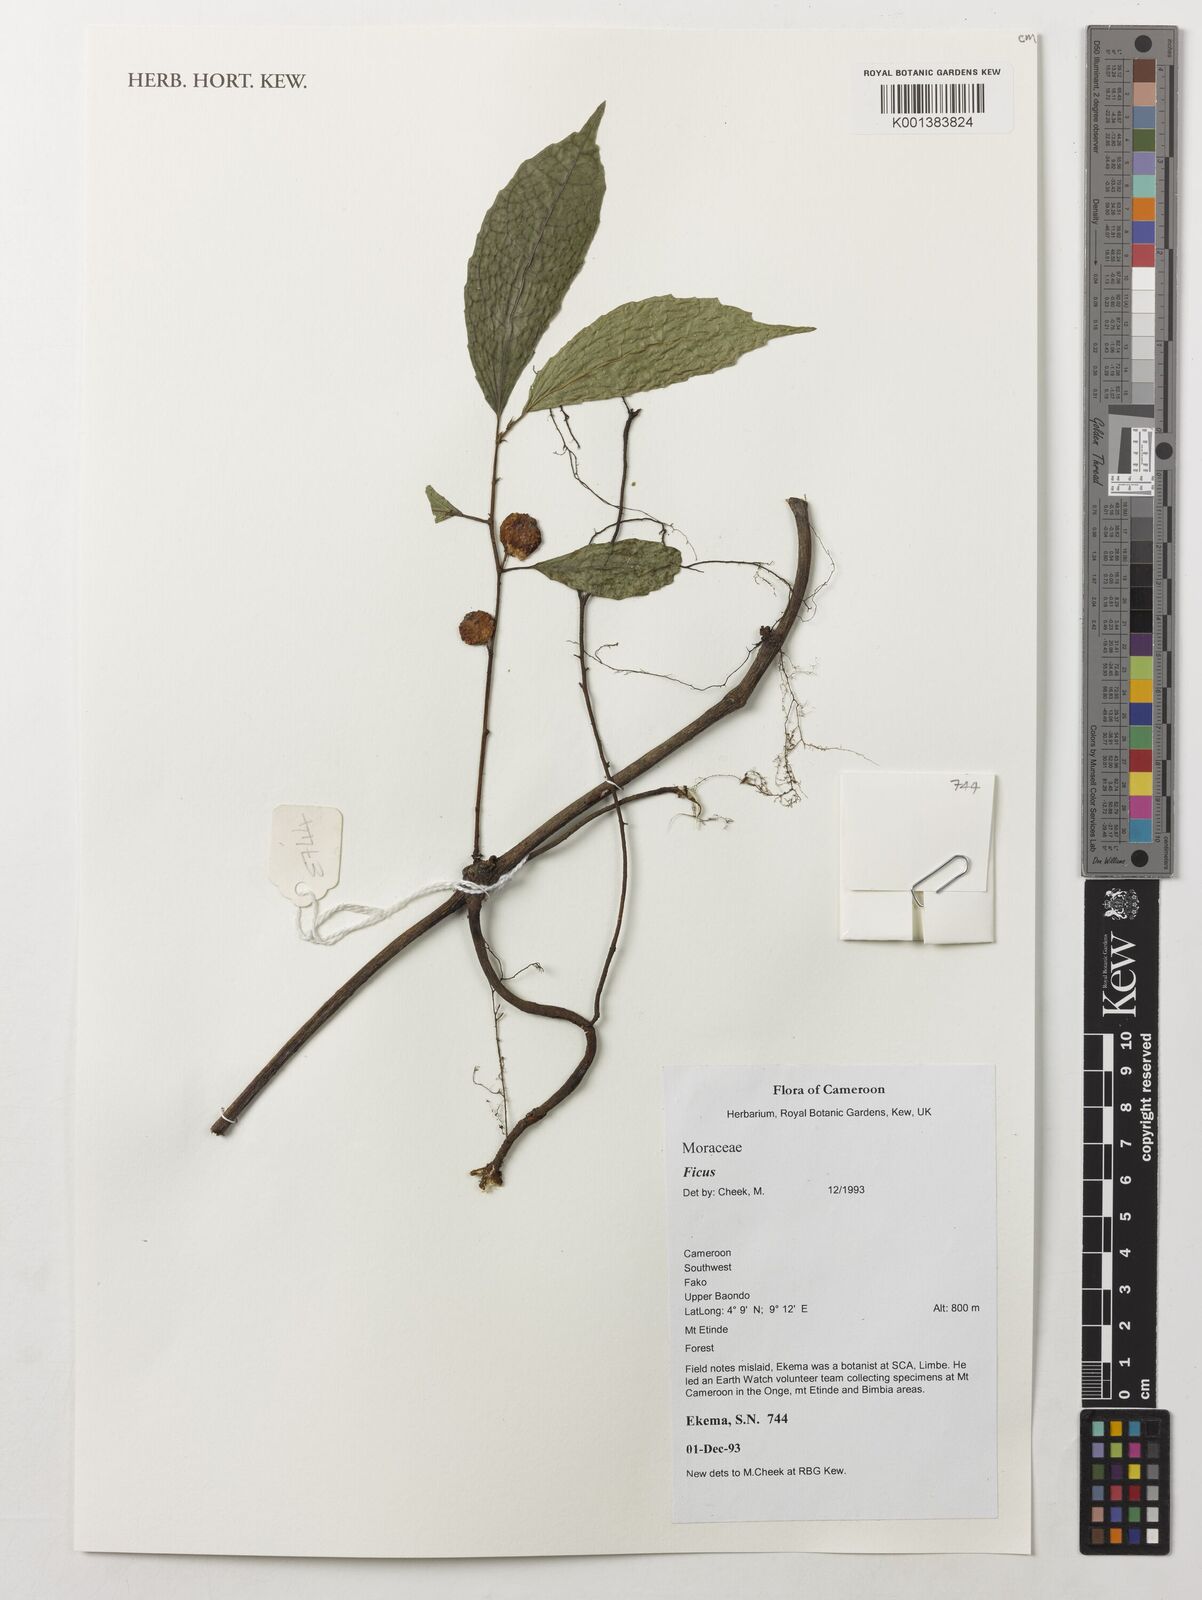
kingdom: Plantae
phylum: Tracheophyta
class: Magnoliopsida
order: Rosales
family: Moraceae
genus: Ficus
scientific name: Ficus
